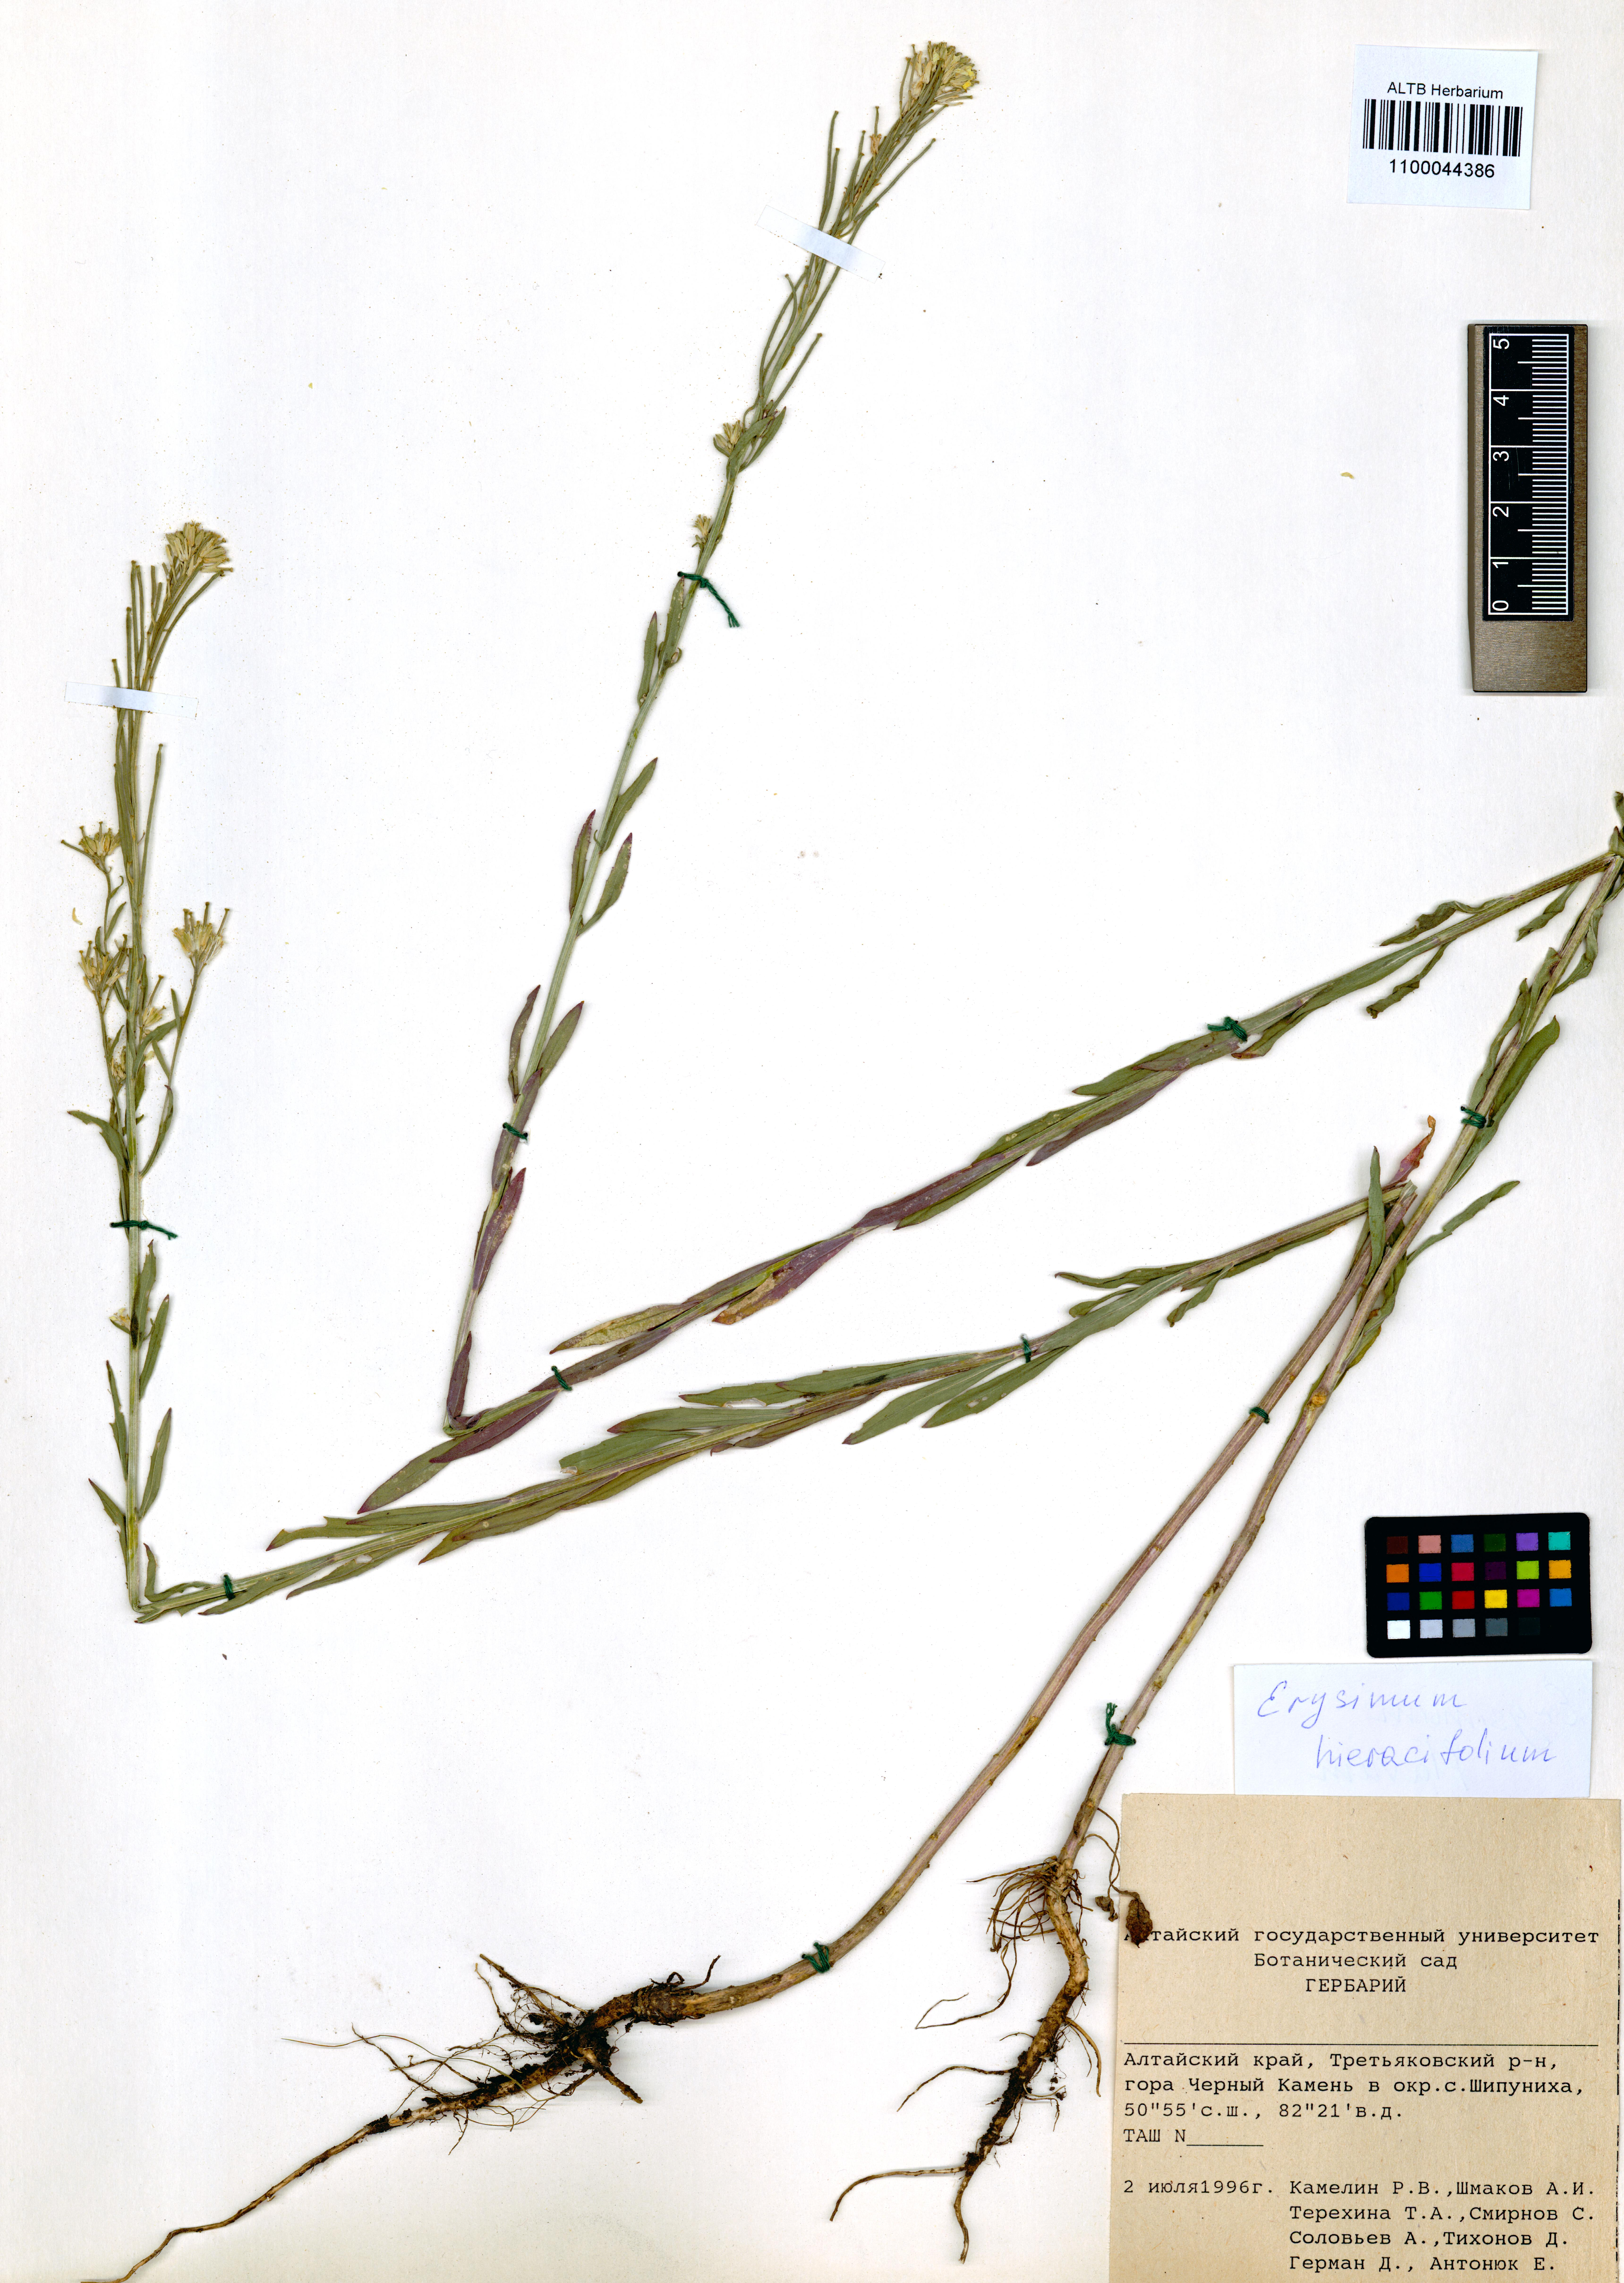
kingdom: Plantae
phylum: Tracheophyta
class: Magnoliopsida
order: Brassicales
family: Brassicaceae
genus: Erysimum
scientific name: Erysimum hieraciifolium
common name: European wallflower
